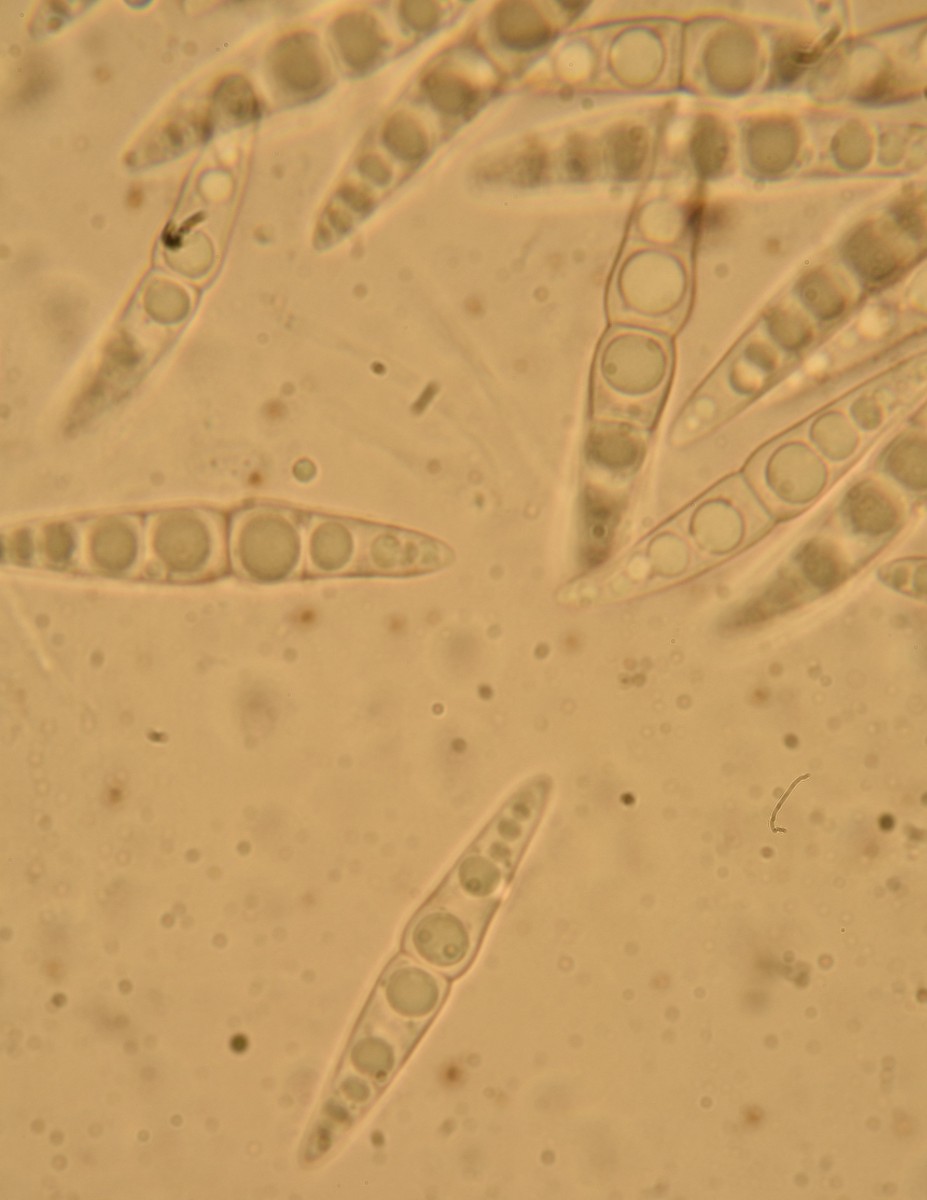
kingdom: Fungi
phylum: Ascomycota
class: Dothideomycetes
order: Pleosporales
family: Lophiostomataceae
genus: Lophiostoma
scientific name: Lophiostoma semiliberum
